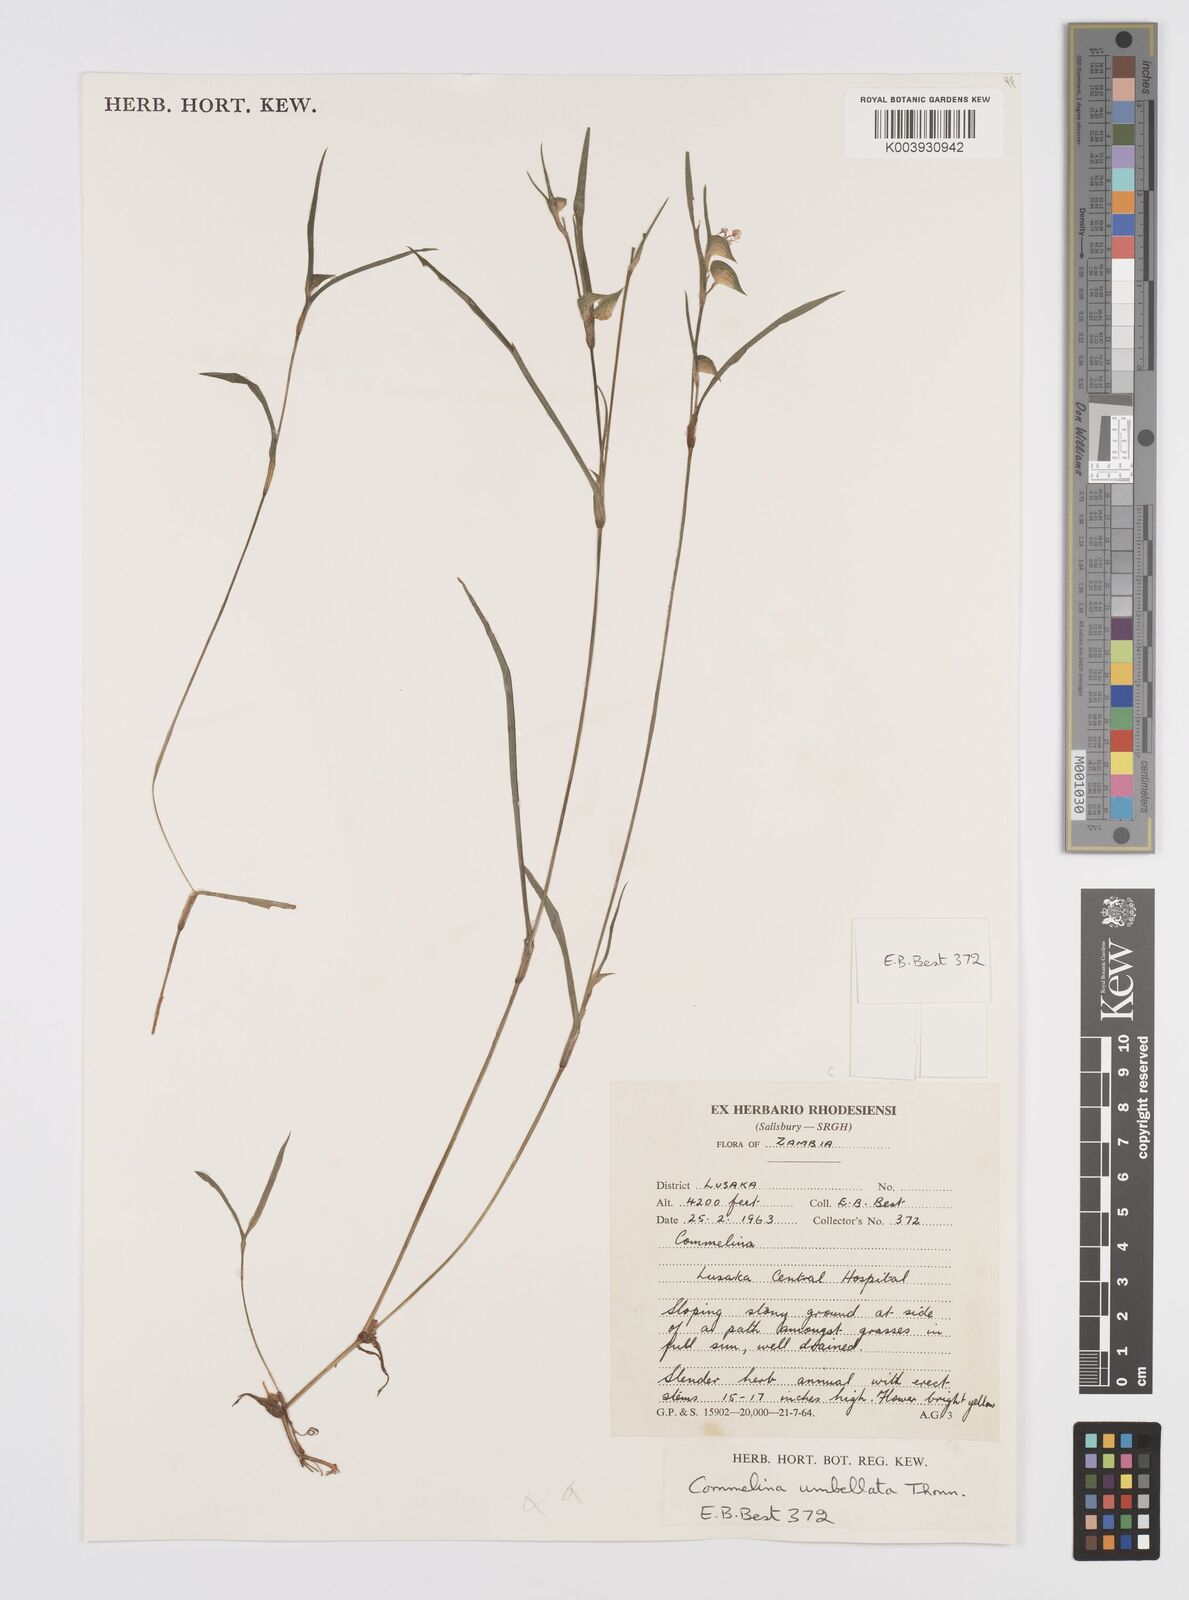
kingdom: Plantae
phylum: Tracheophyta
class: Liliopsida
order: Commelinales
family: Commelinaceae
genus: Commelina
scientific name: Commelina nigritana
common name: African dayflower
